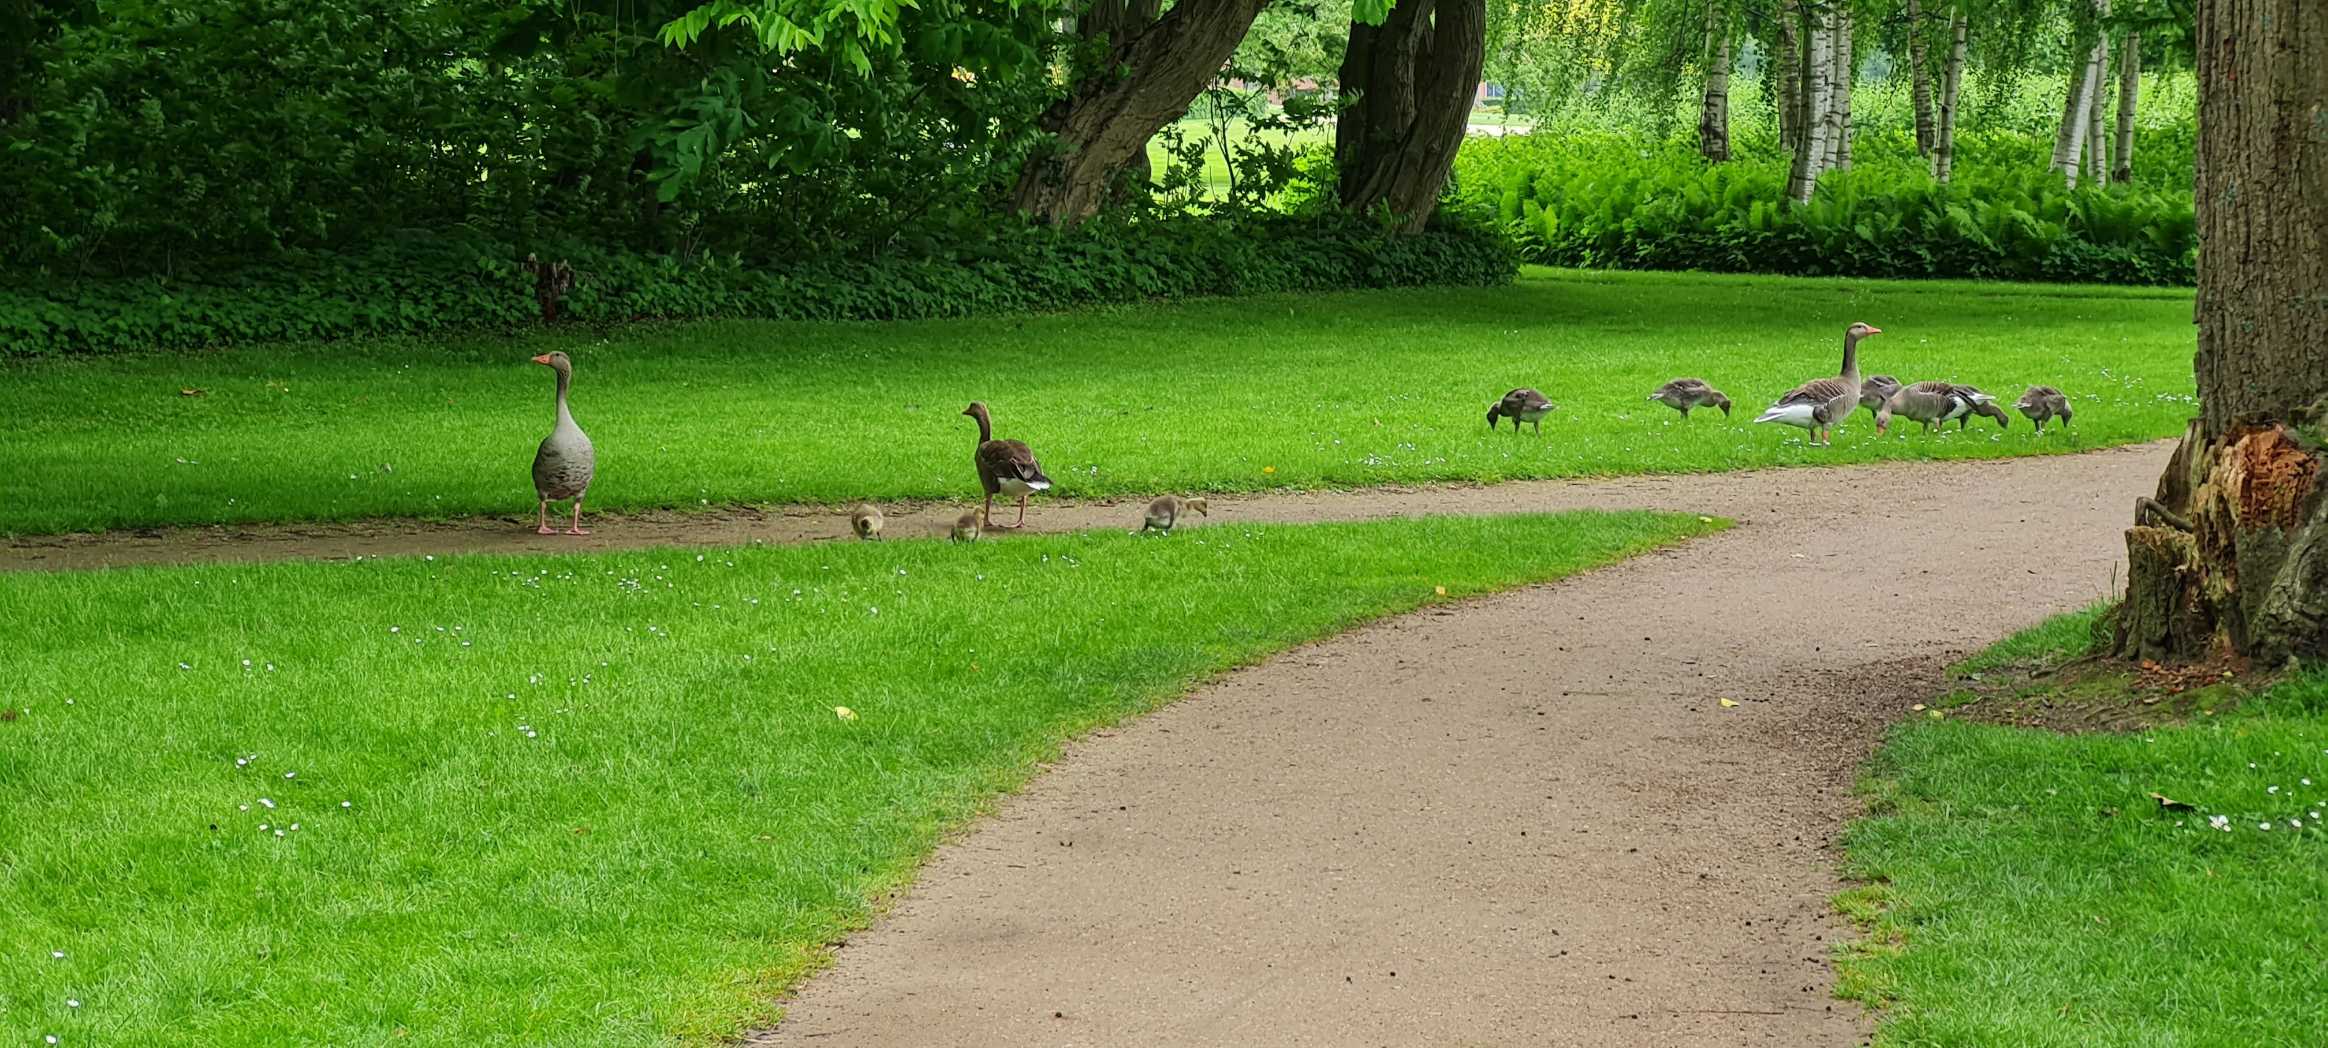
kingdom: Animalia
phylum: Chordata
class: Aves
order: Anseriformes
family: Anatidae
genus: Anser
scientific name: Anser anser
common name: Grågås
